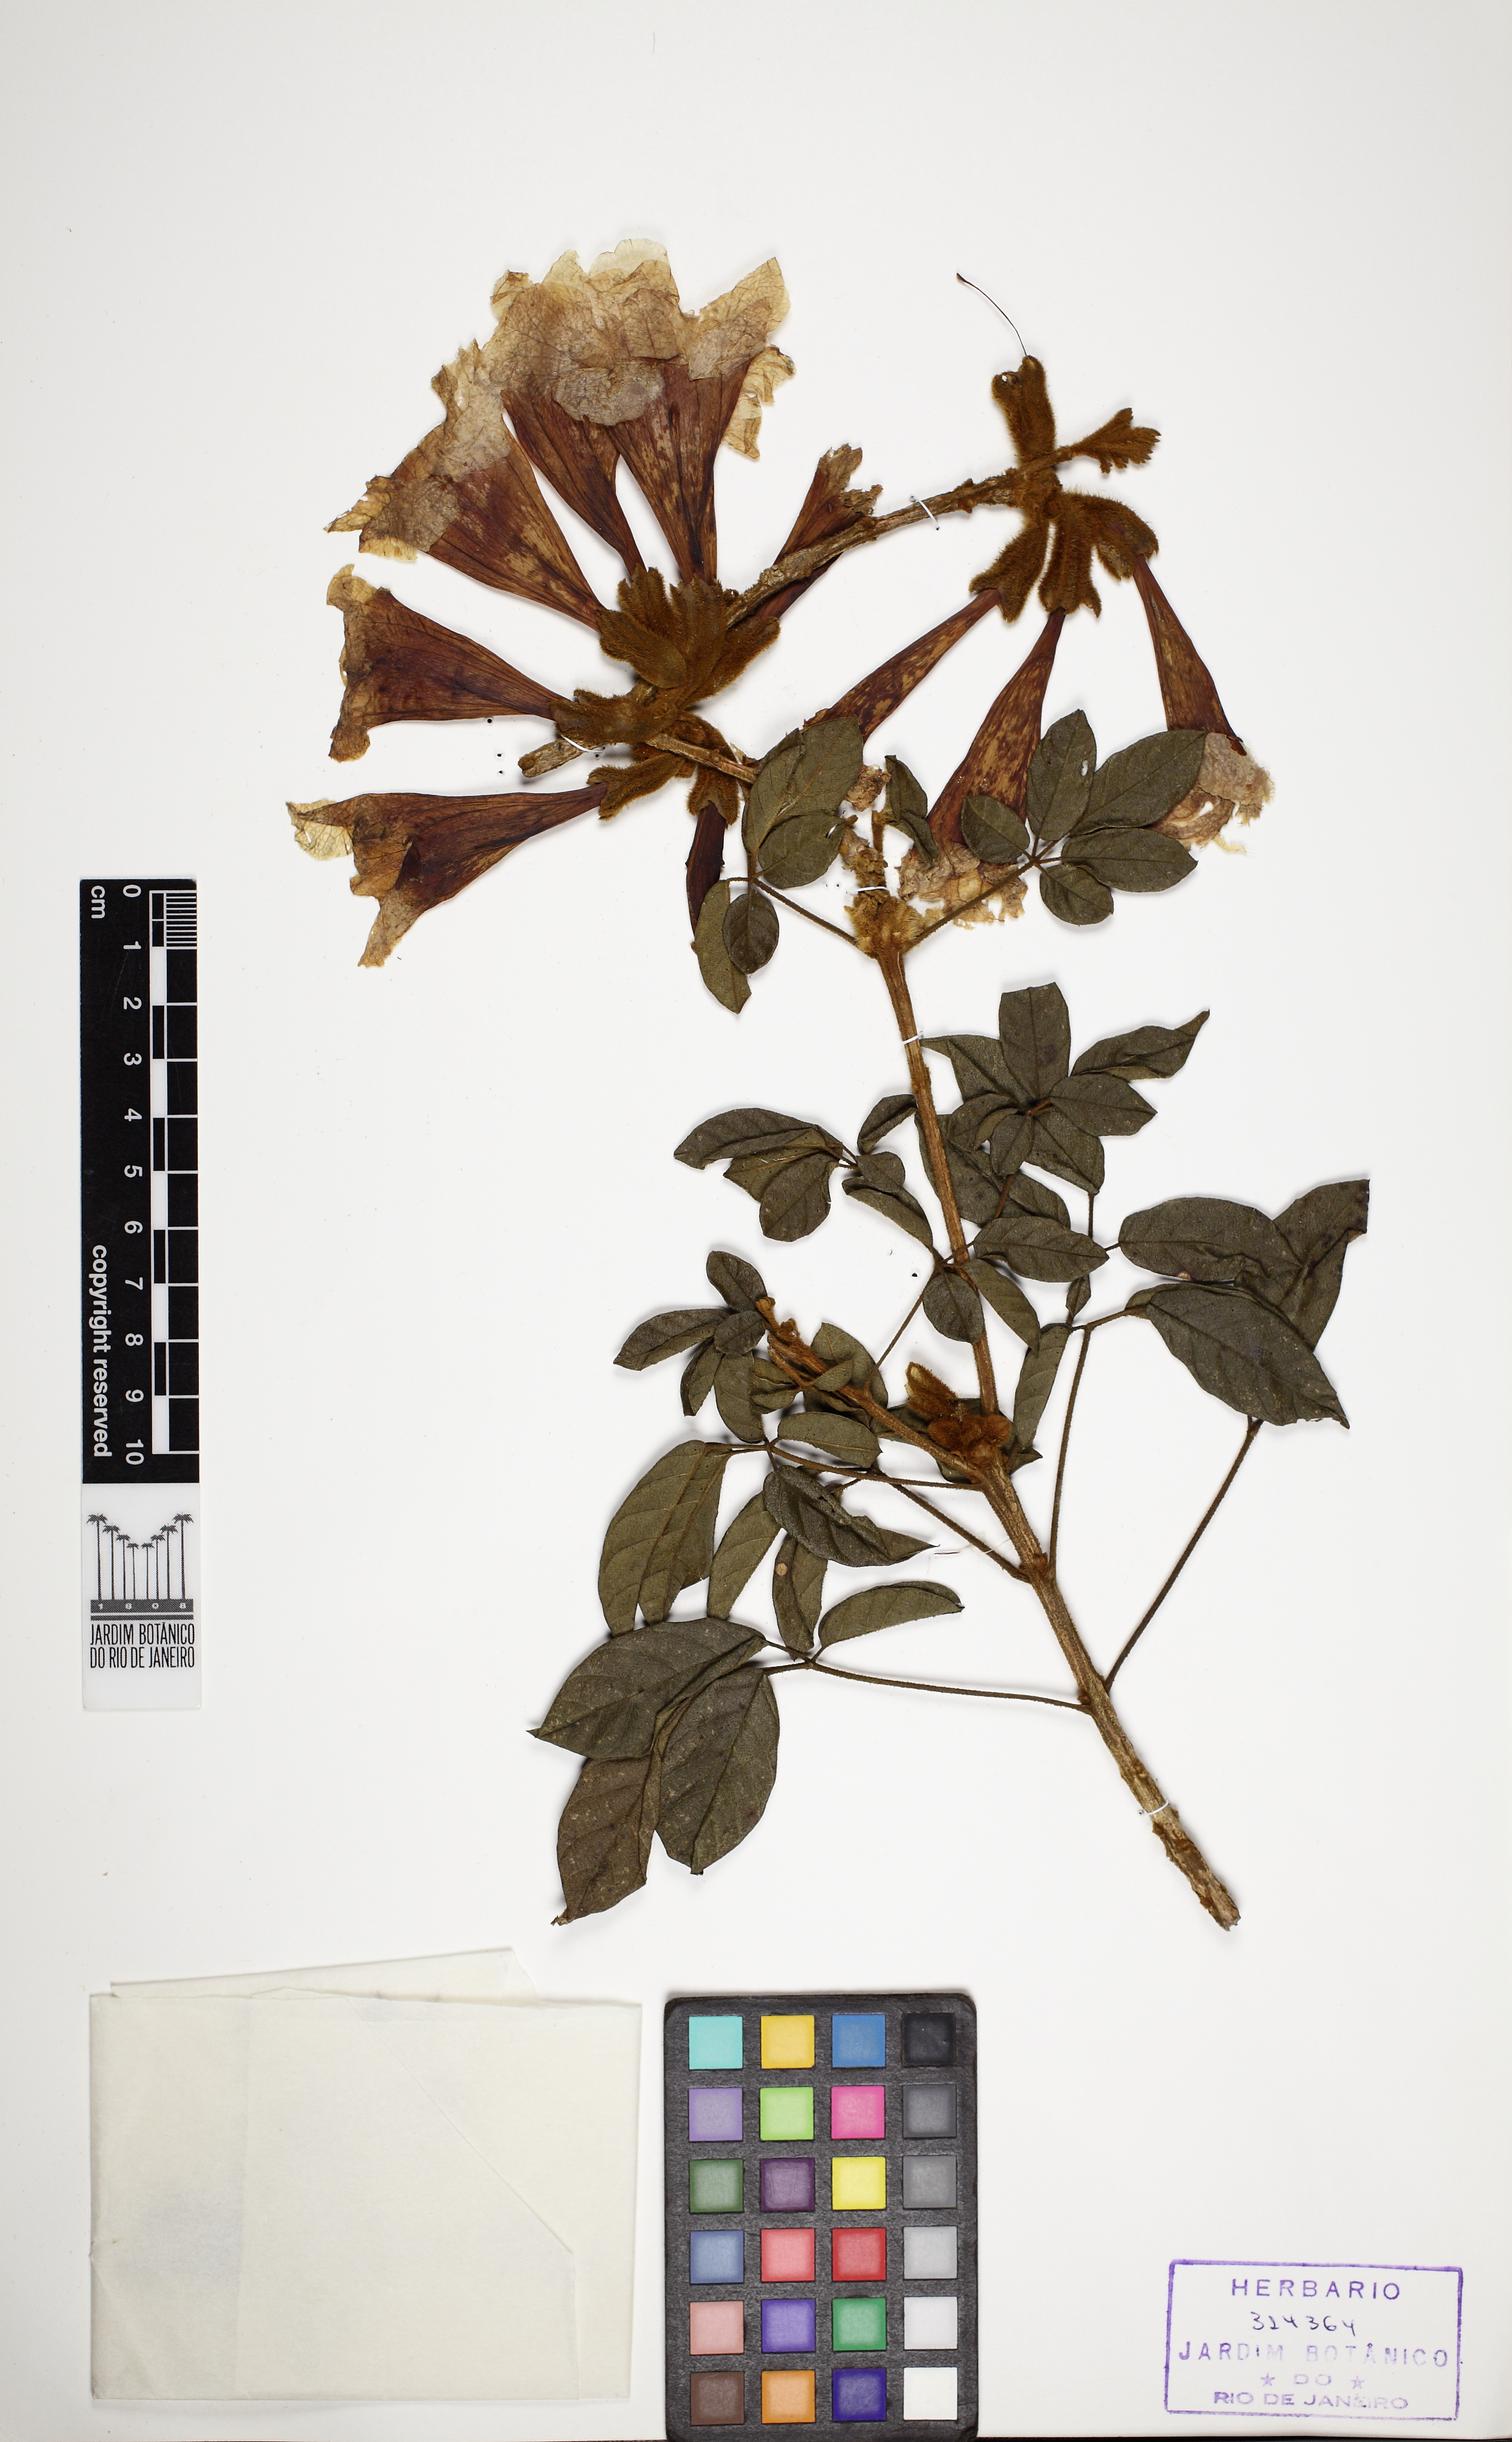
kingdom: Plantae
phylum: Tracheophyta
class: Magnoliopsida
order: Lamiales
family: Bignoniaceae
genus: Handroanthus
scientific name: Handroanthus chrysotrichus
